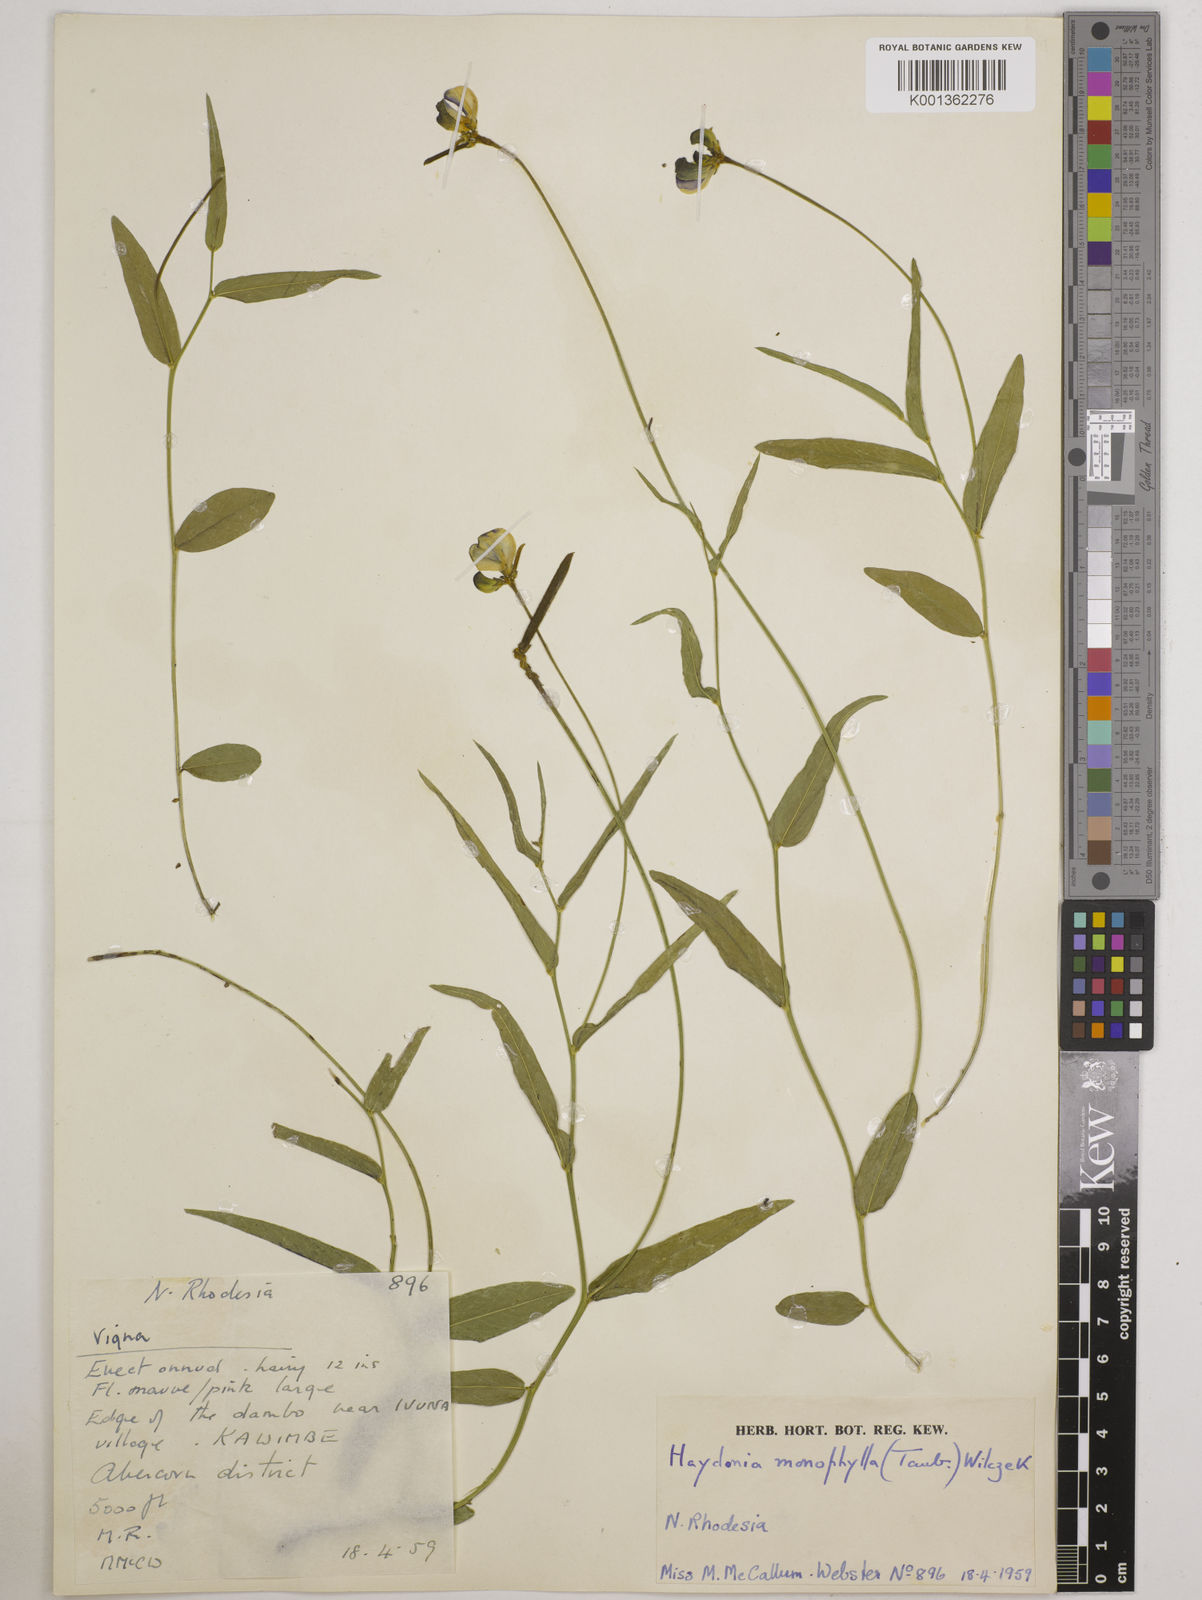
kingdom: Plantae
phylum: Tracheophyta
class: Magnoliopsida
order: Fabales
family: Fabaceae
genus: Vigna
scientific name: Vigna monophylla
